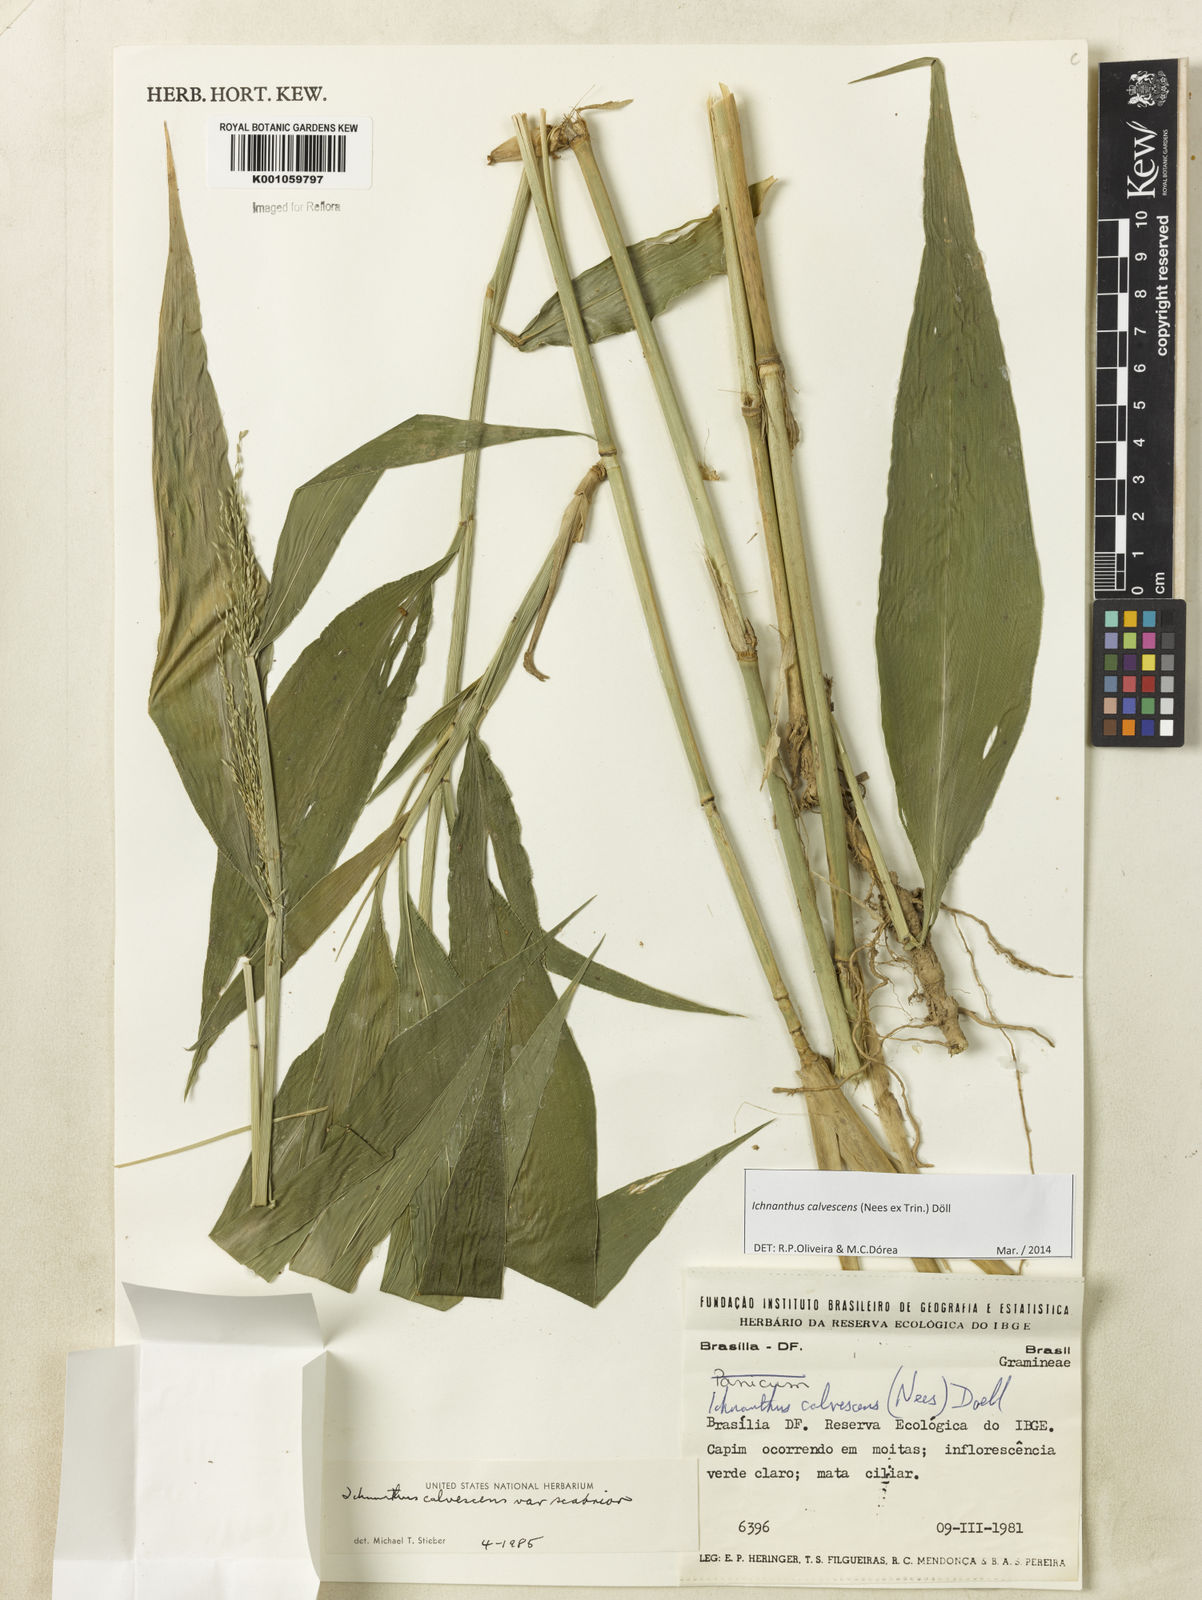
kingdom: Plantae
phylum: Tracheophyta
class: Liliopsida
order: Poales
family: Poaceae
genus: Ichnanthus
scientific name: Ichnanthus
